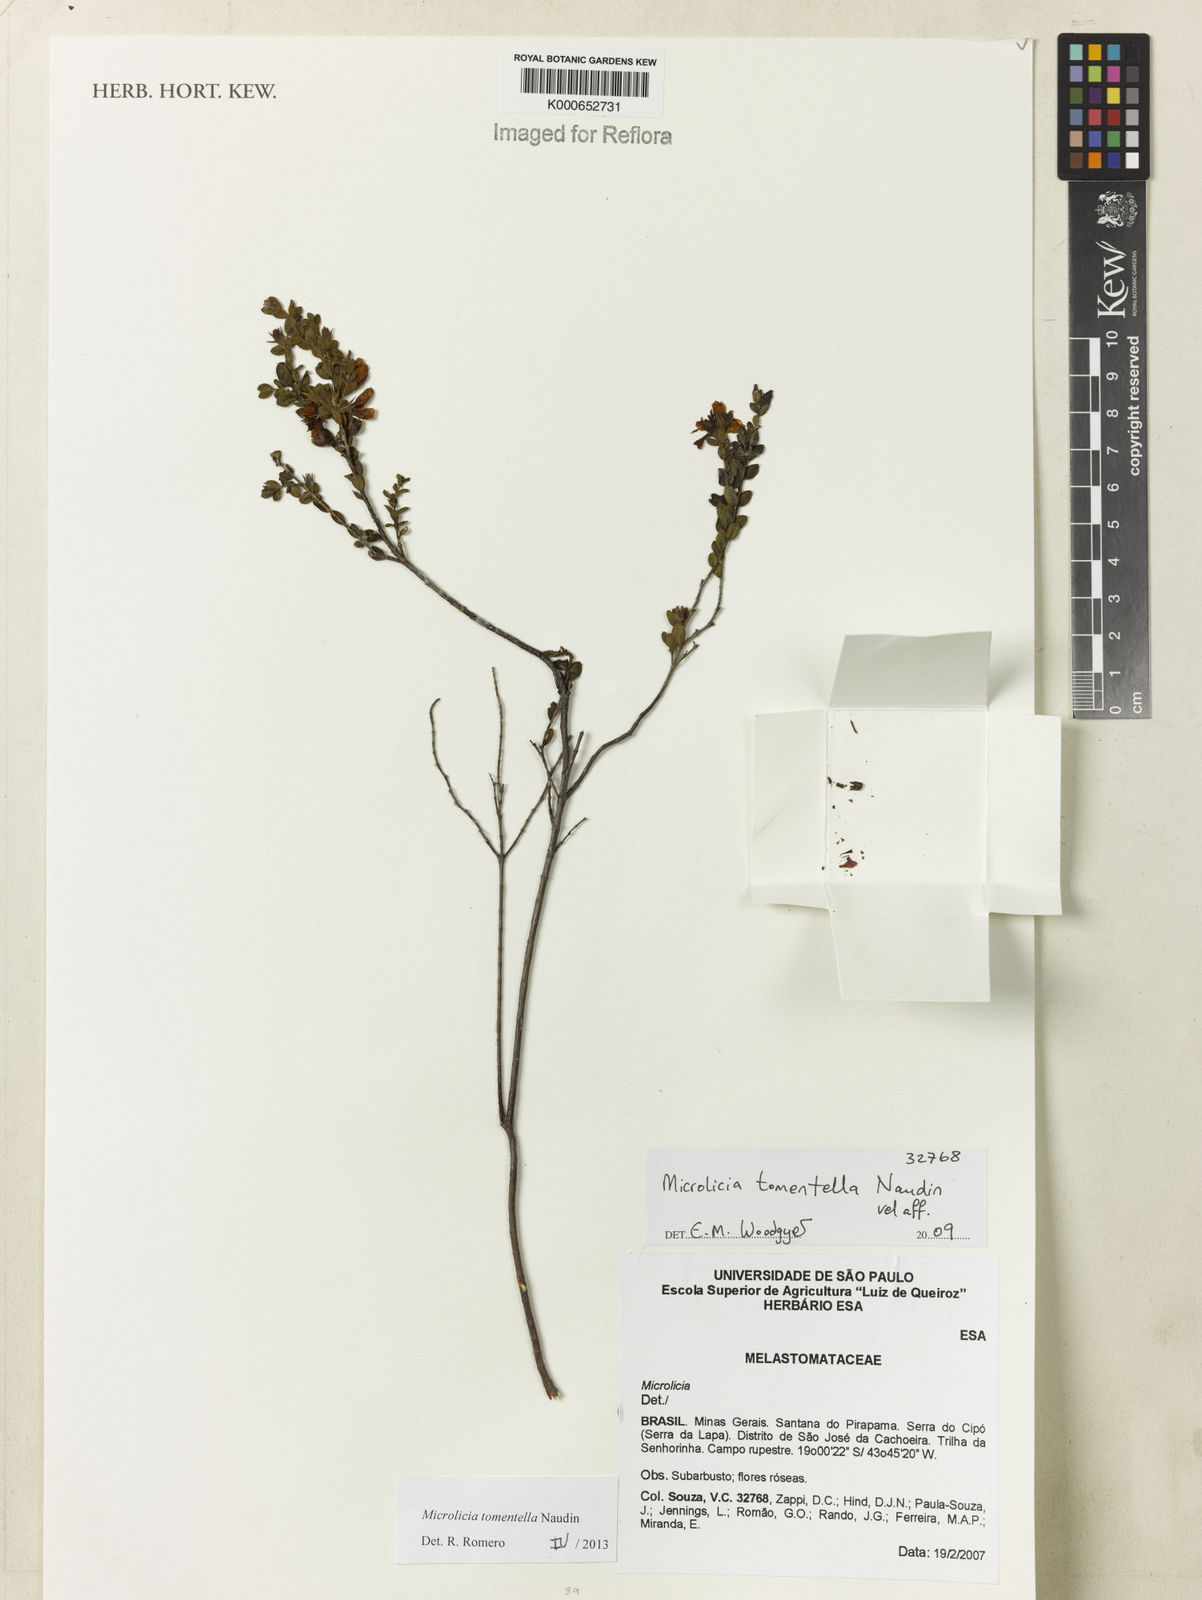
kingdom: Plantae
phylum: Tracheophyta
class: Magnoliopsida
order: Myrtales
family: Melastomataceae
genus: Miconia
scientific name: Miconia crenata
